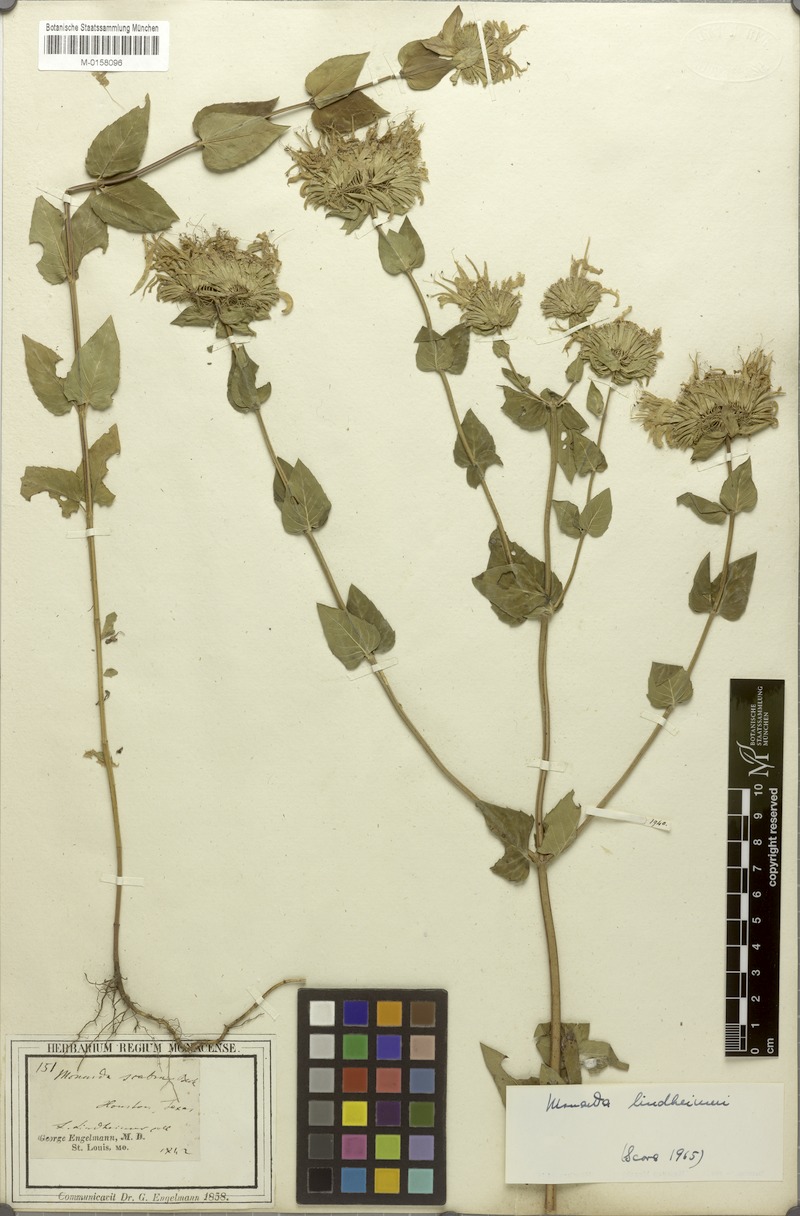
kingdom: Plantae
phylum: Tracheophyta
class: Magnoliopsida
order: Lamiales
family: Lamiaceae
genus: Monarda
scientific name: Monarda lindheimeri
